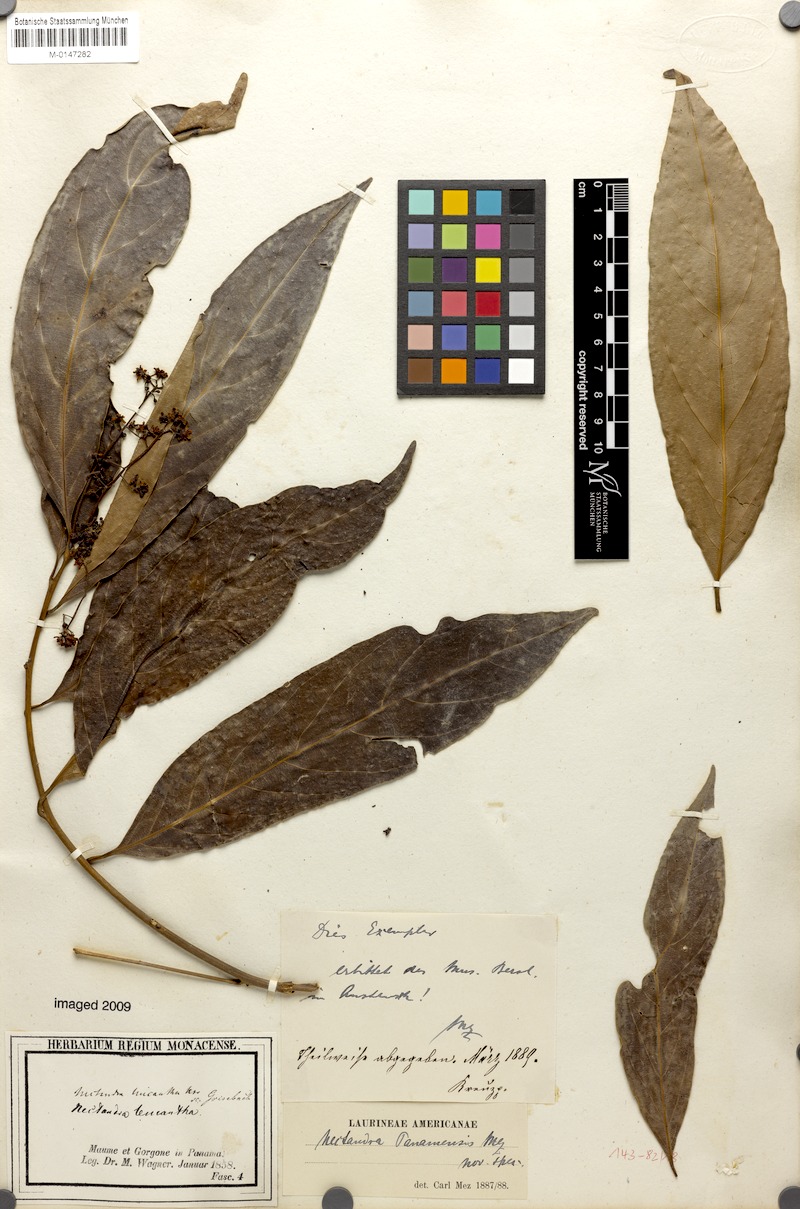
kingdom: Plantae
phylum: Tracheophyta
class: Magnoliopsida
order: Laurales
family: Lauraceae
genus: Nectandra
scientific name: Nectandra turbacensis
